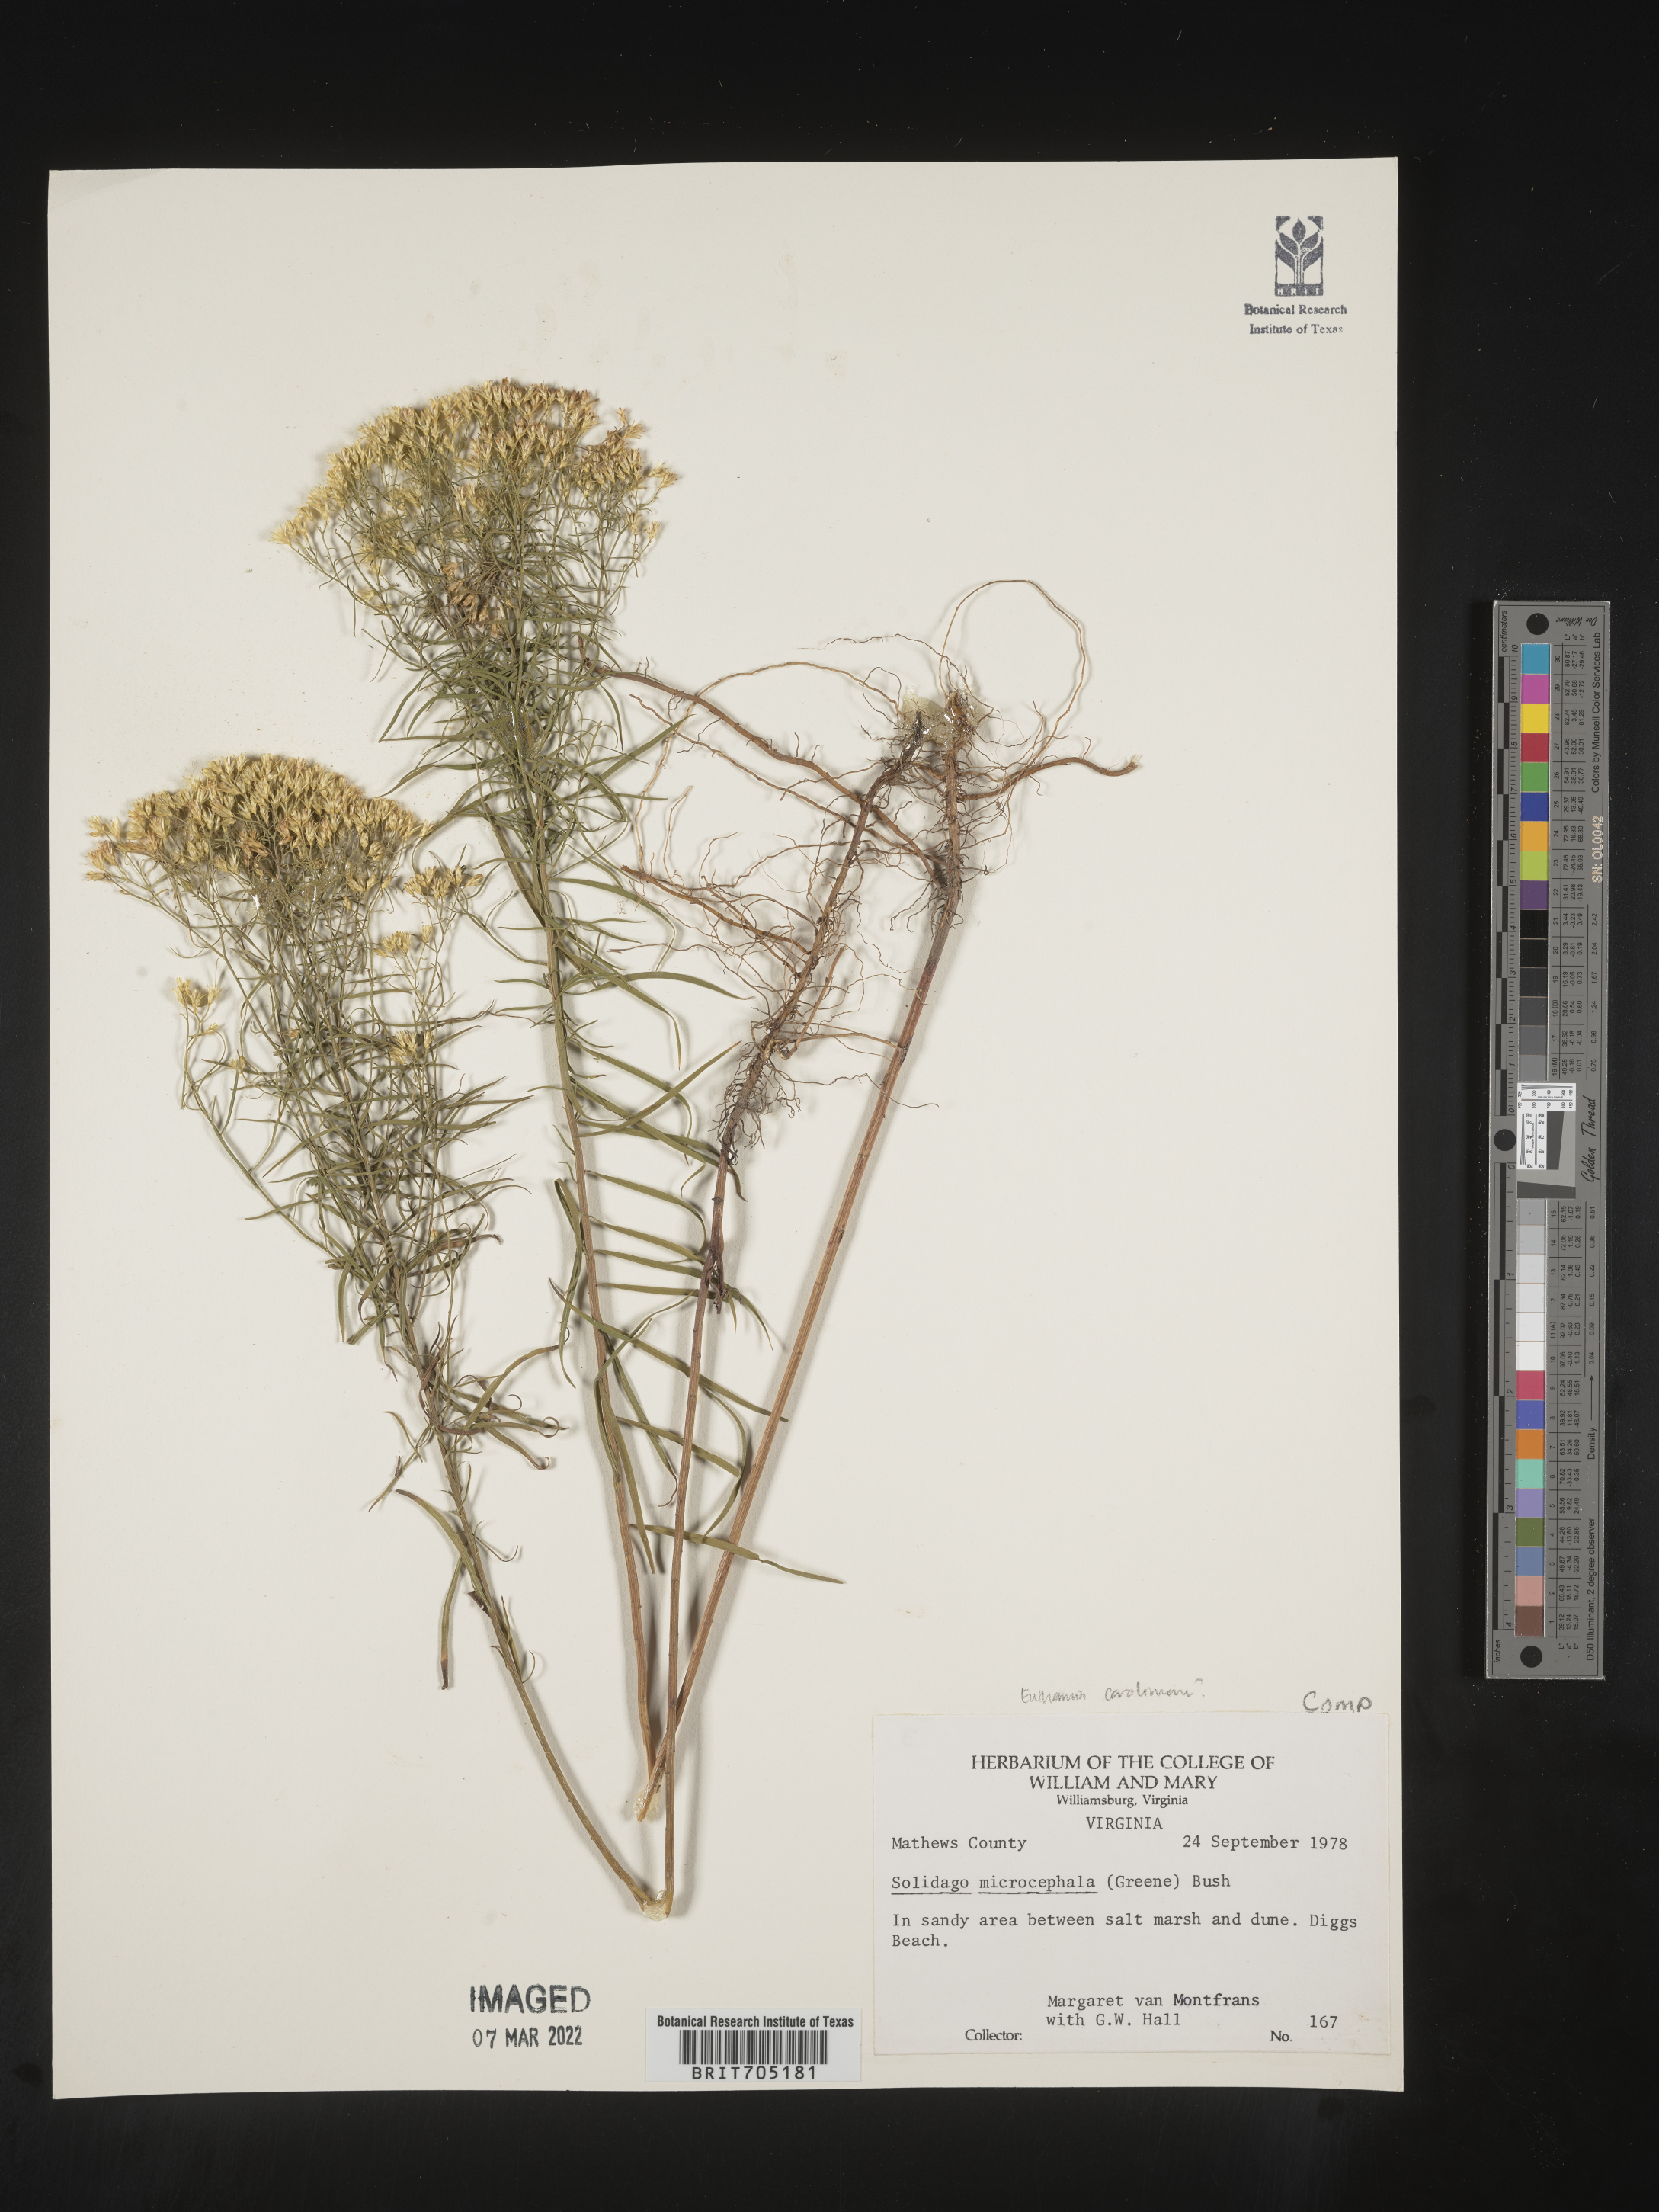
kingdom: Plantae
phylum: Tracheophyta
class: Magnoliopsida
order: Asterales
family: Asteraceae
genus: Euthamia
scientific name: Euthamia
